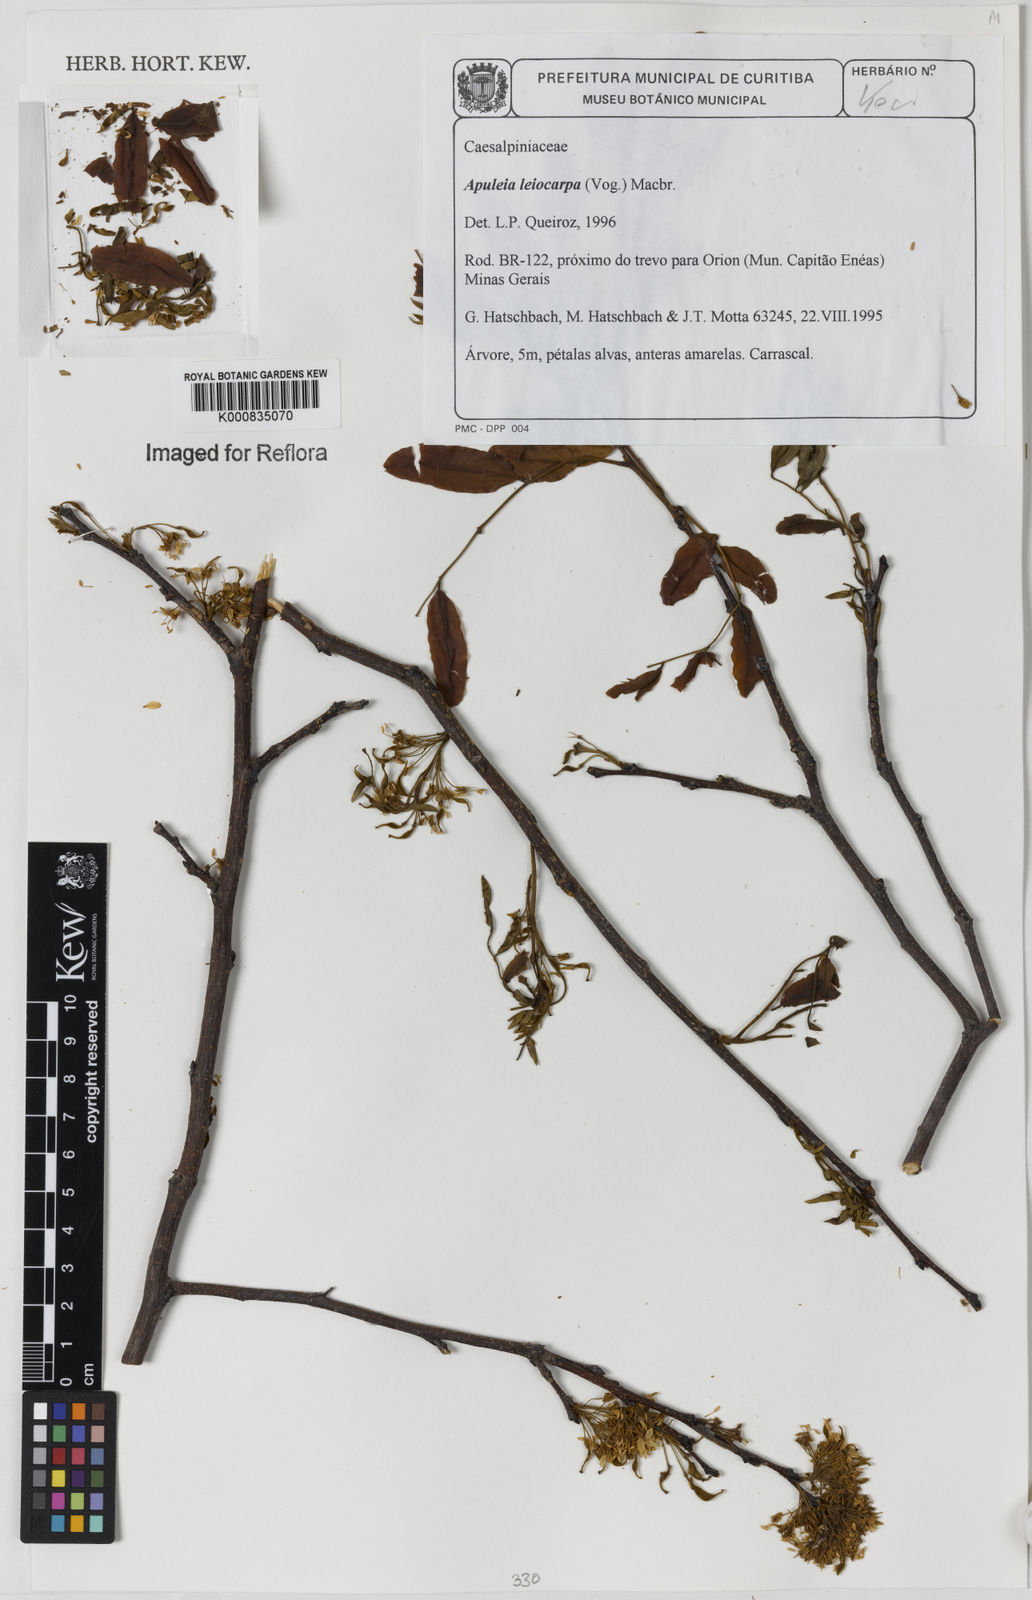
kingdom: Plantae
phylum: Tracheophyta
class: Magnoliopsida
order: Fabales
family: Fabaceae
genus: Apuleia
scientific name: Apuleia leiocarpa
